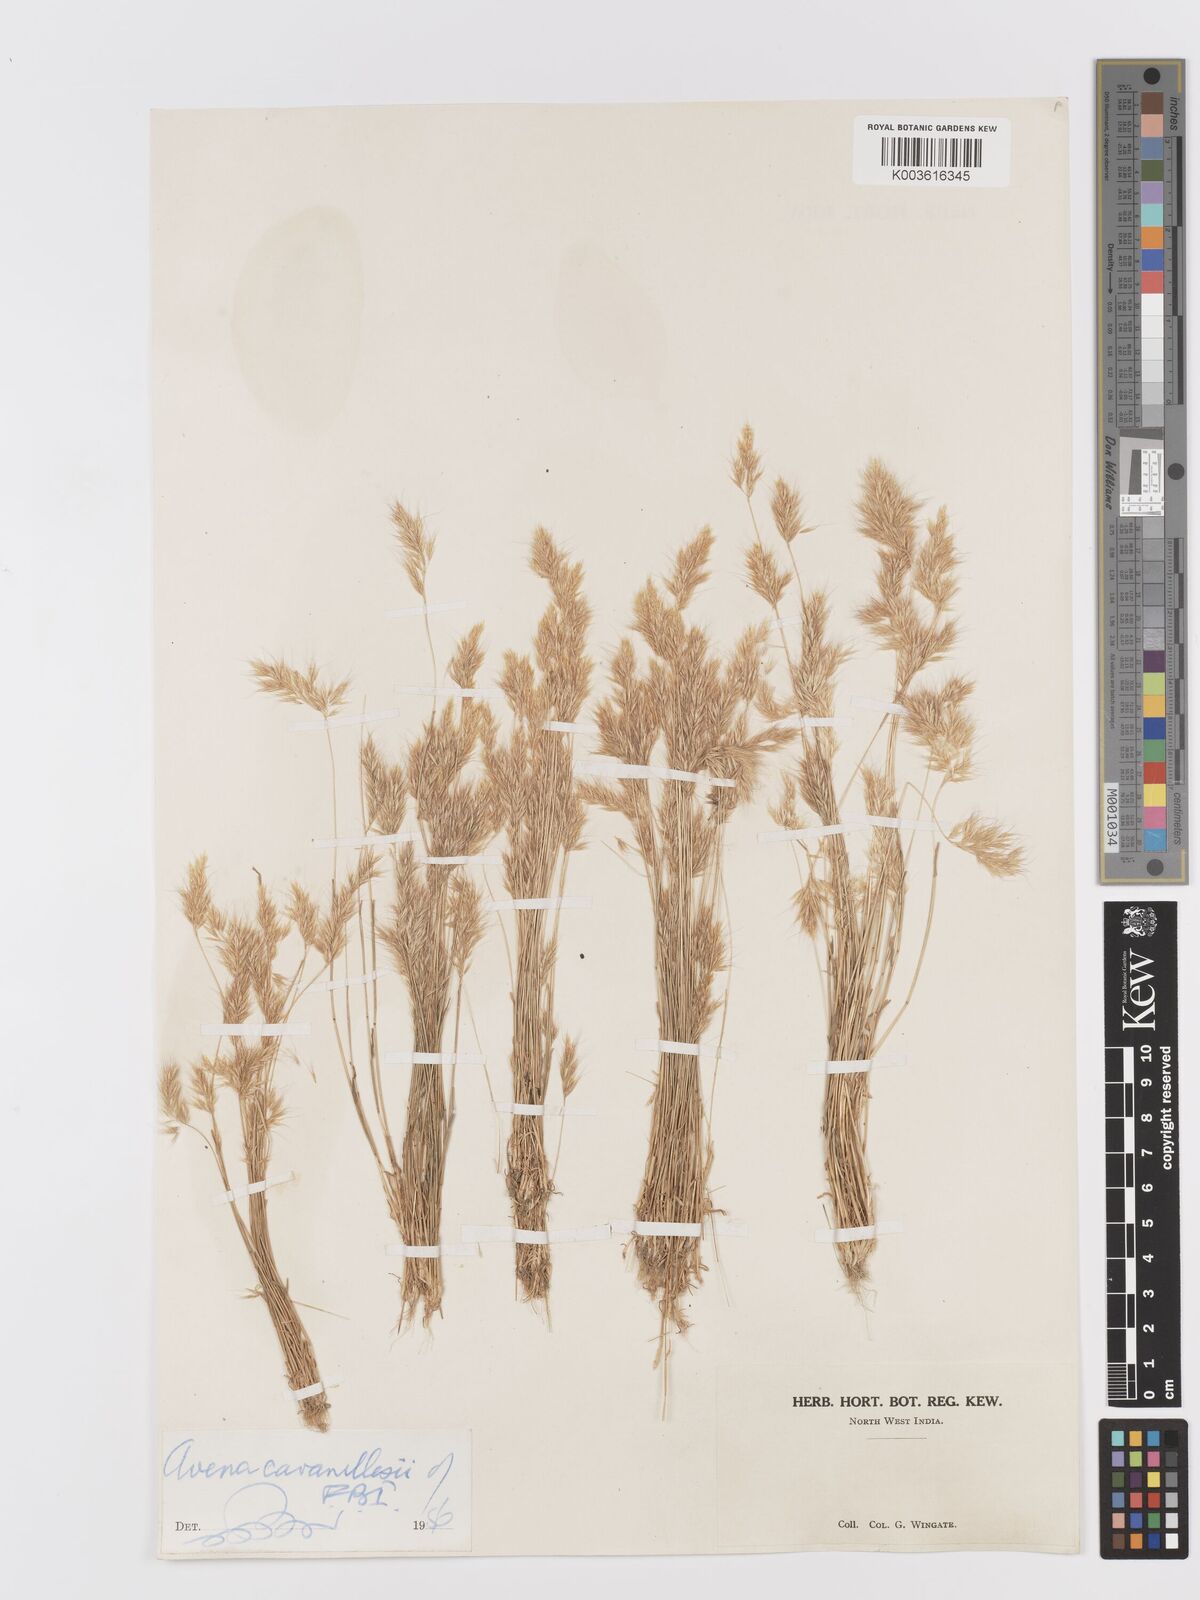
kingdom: Plantae
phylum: Tracheophyta
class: Liliopsida
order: Poales
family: Poaceae
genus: Trisetaria
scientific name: Trisetaria loeflingiana
